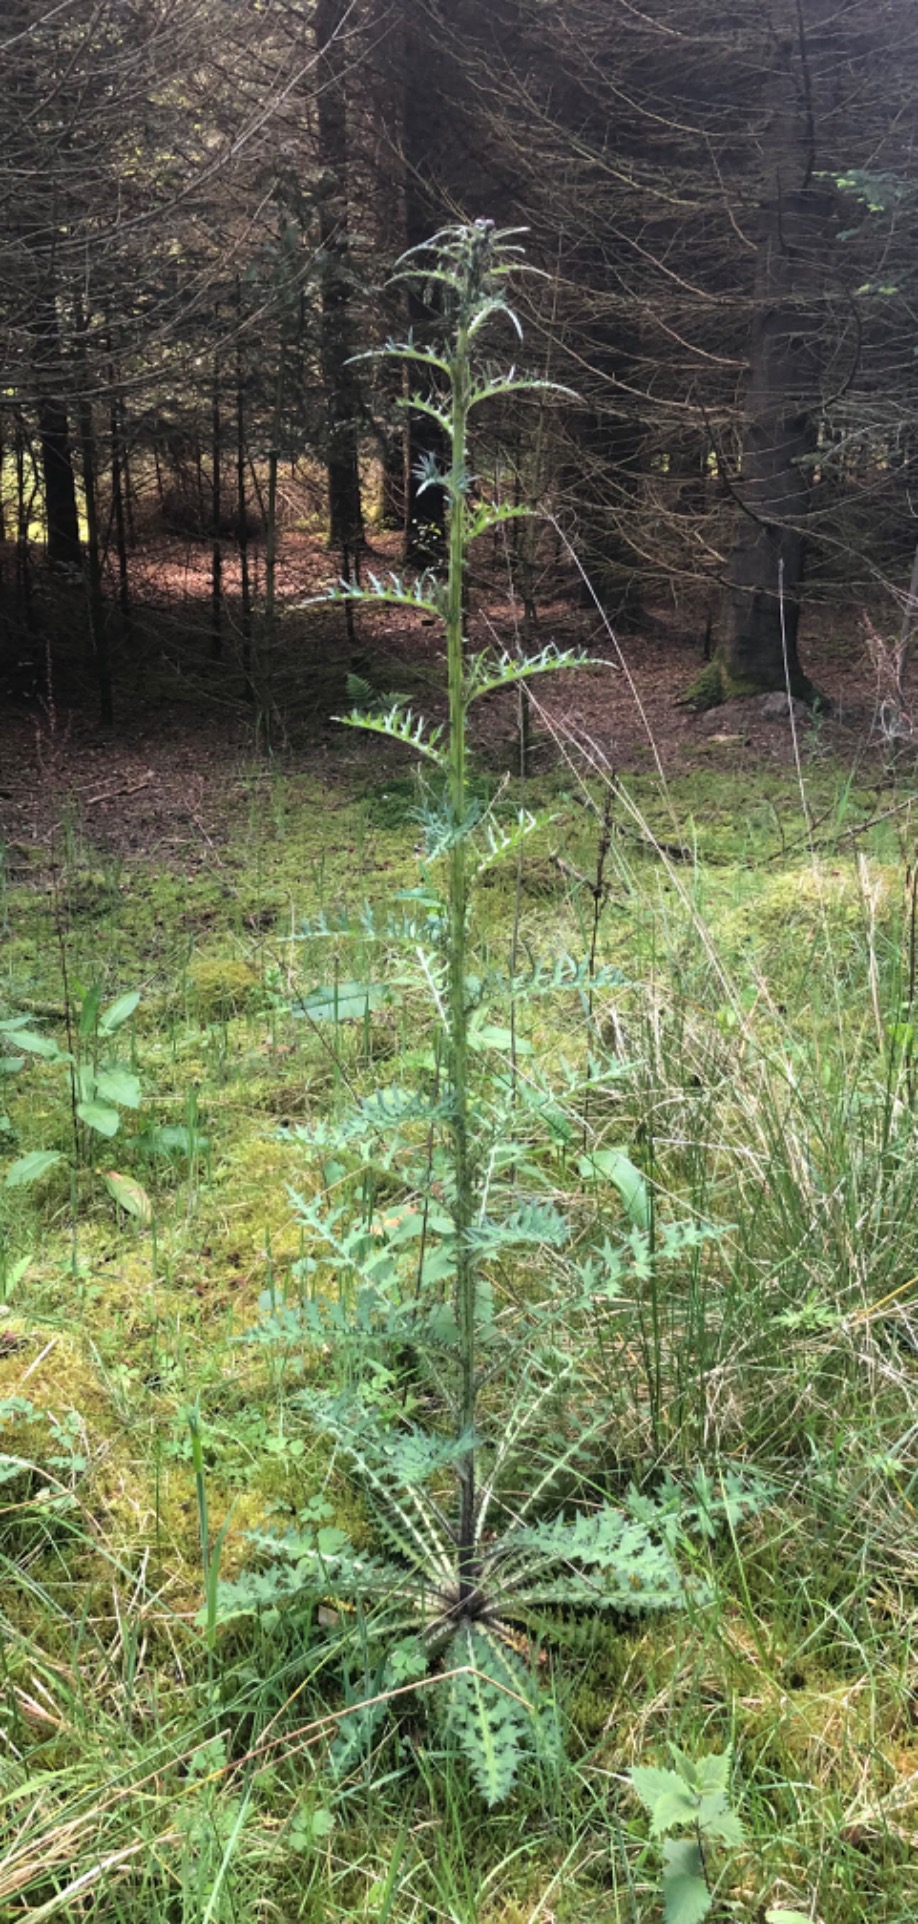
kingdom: Plantae
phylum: Tracheophyta
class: Magnoliopsida
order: Asterales
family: Asteraceae
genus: Cirsium
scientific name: Cirsium palustre
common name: Kær-tidsel
